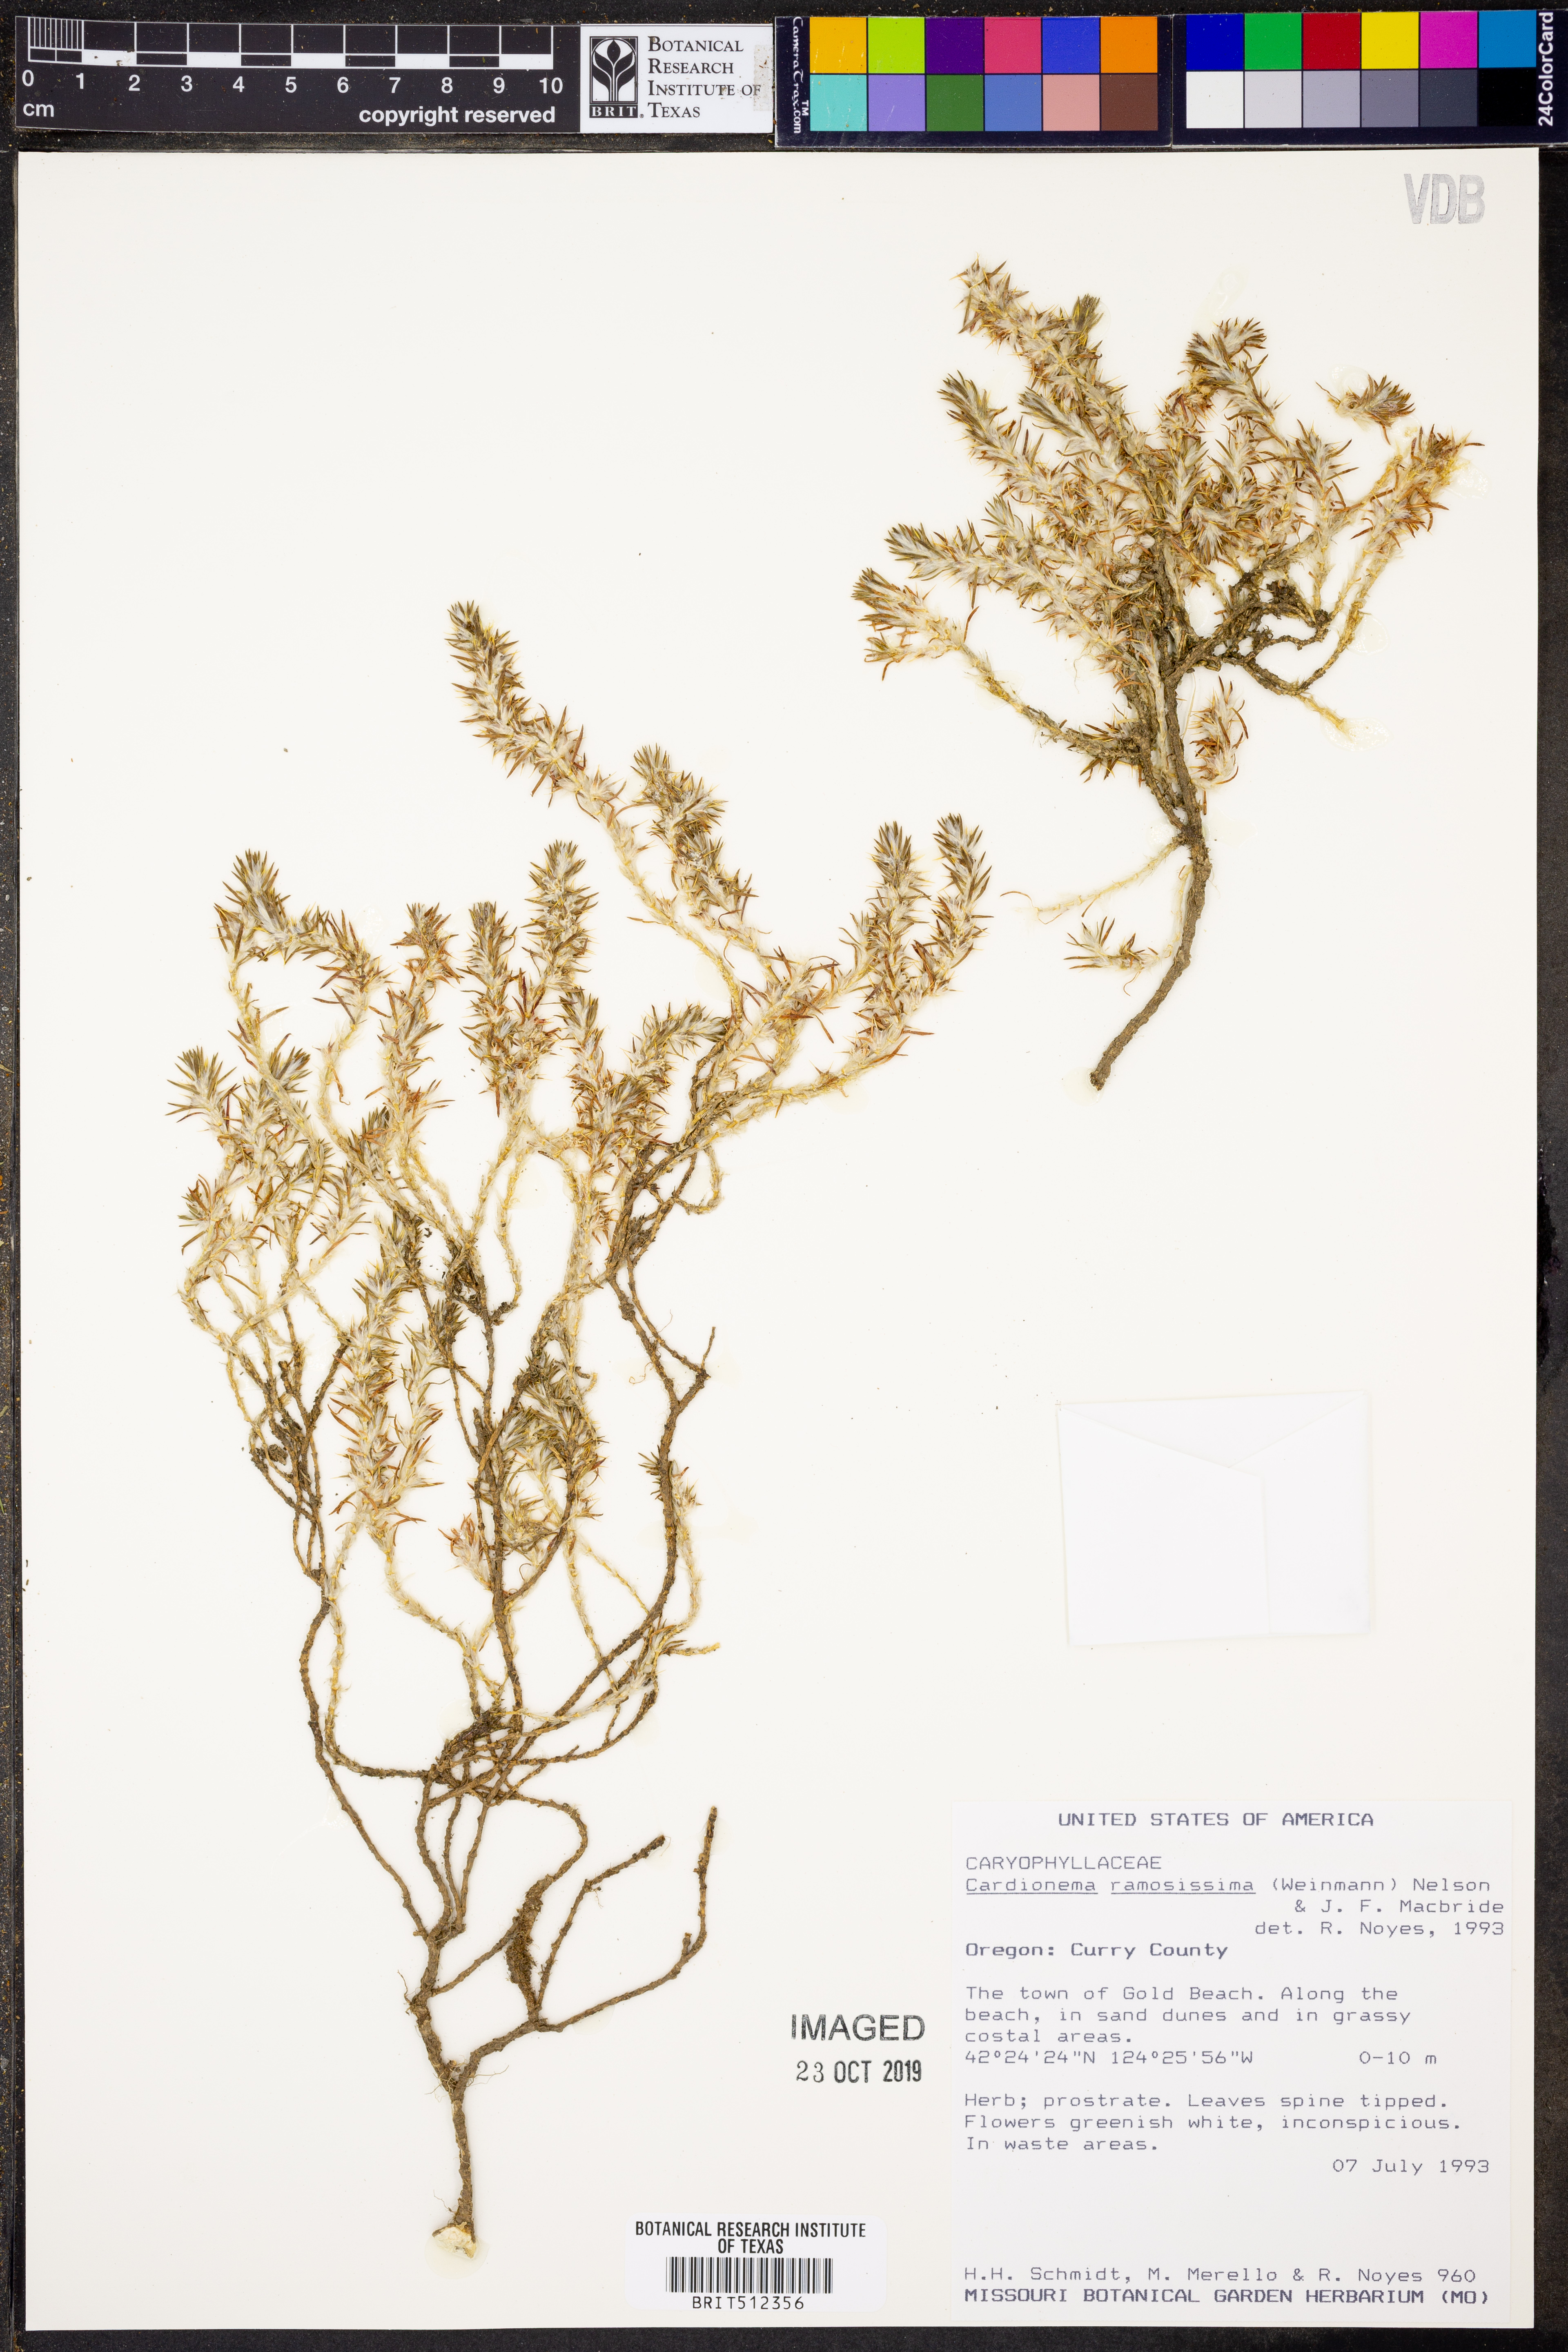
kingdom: Plantae
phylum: Tracheophyta
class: Magnoliopsida
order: Caryophyllales
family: Caryophyllaceae
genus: Cardionema
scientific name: Cardionema ramosissima
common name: Sandcarpet
